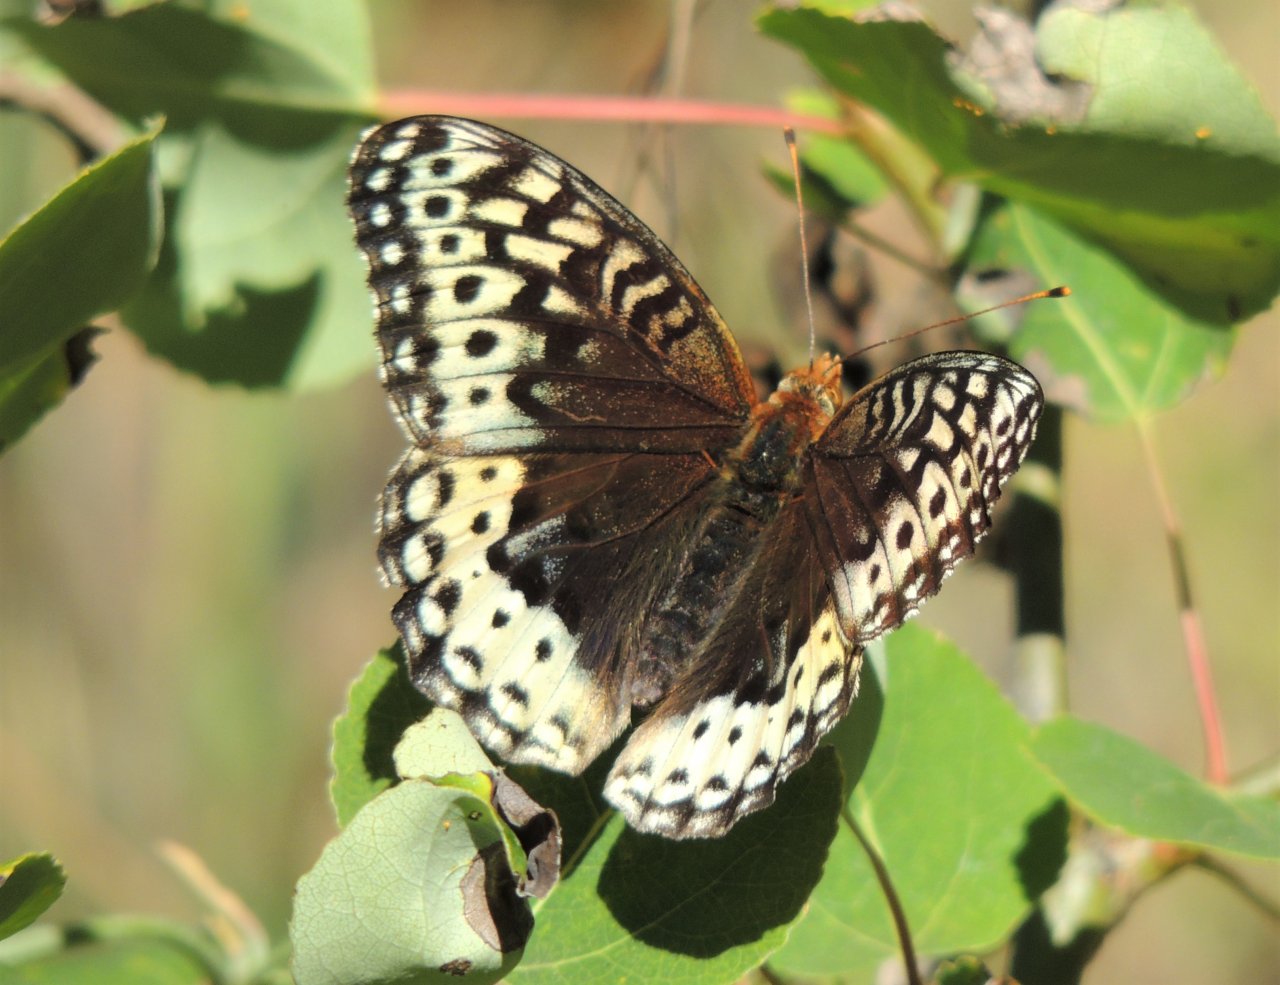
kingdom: Animalia
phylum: Arthropoda
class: Insecta
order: Lepidoptera
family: Nymphalidae
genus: Speyeria
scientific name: Speyeria cybele
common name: Great Spangled Fritillary
